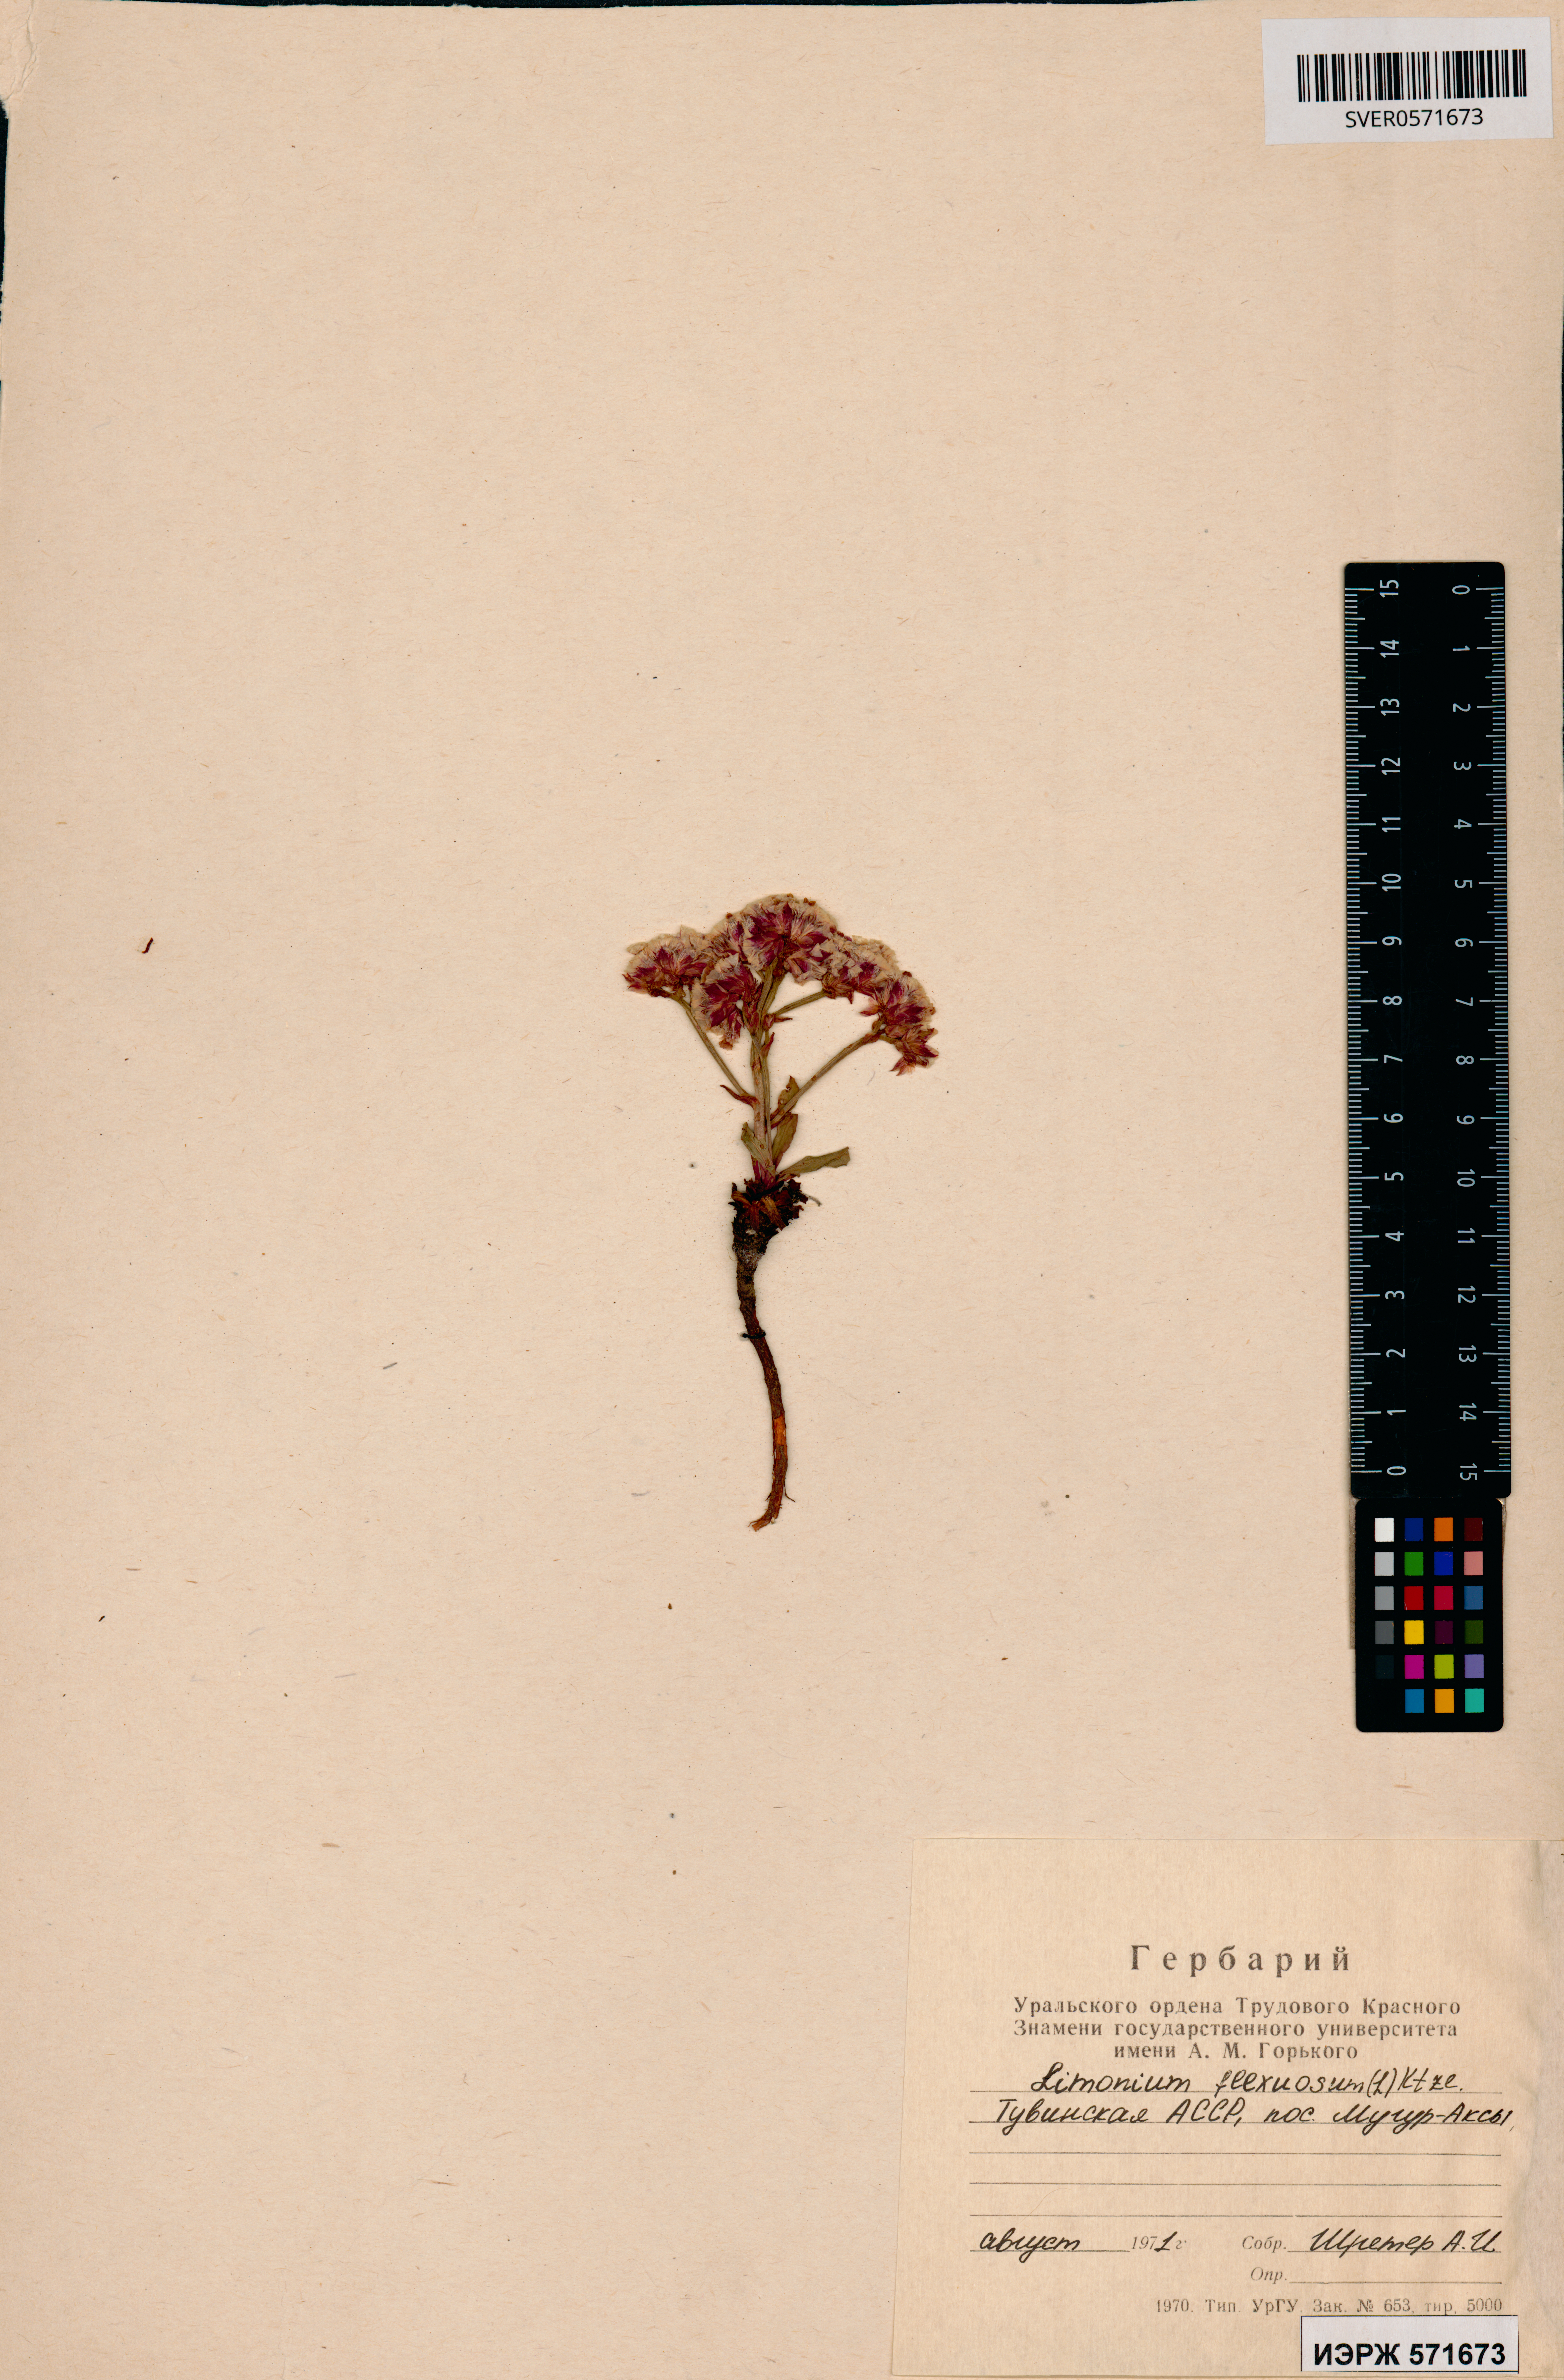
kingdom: Plantae
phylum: Tracheophyta
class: Magnoliopsida
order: Caryophyllales
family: Plumbaginaceae
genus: Limonium
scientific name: Limonium flexuosum
